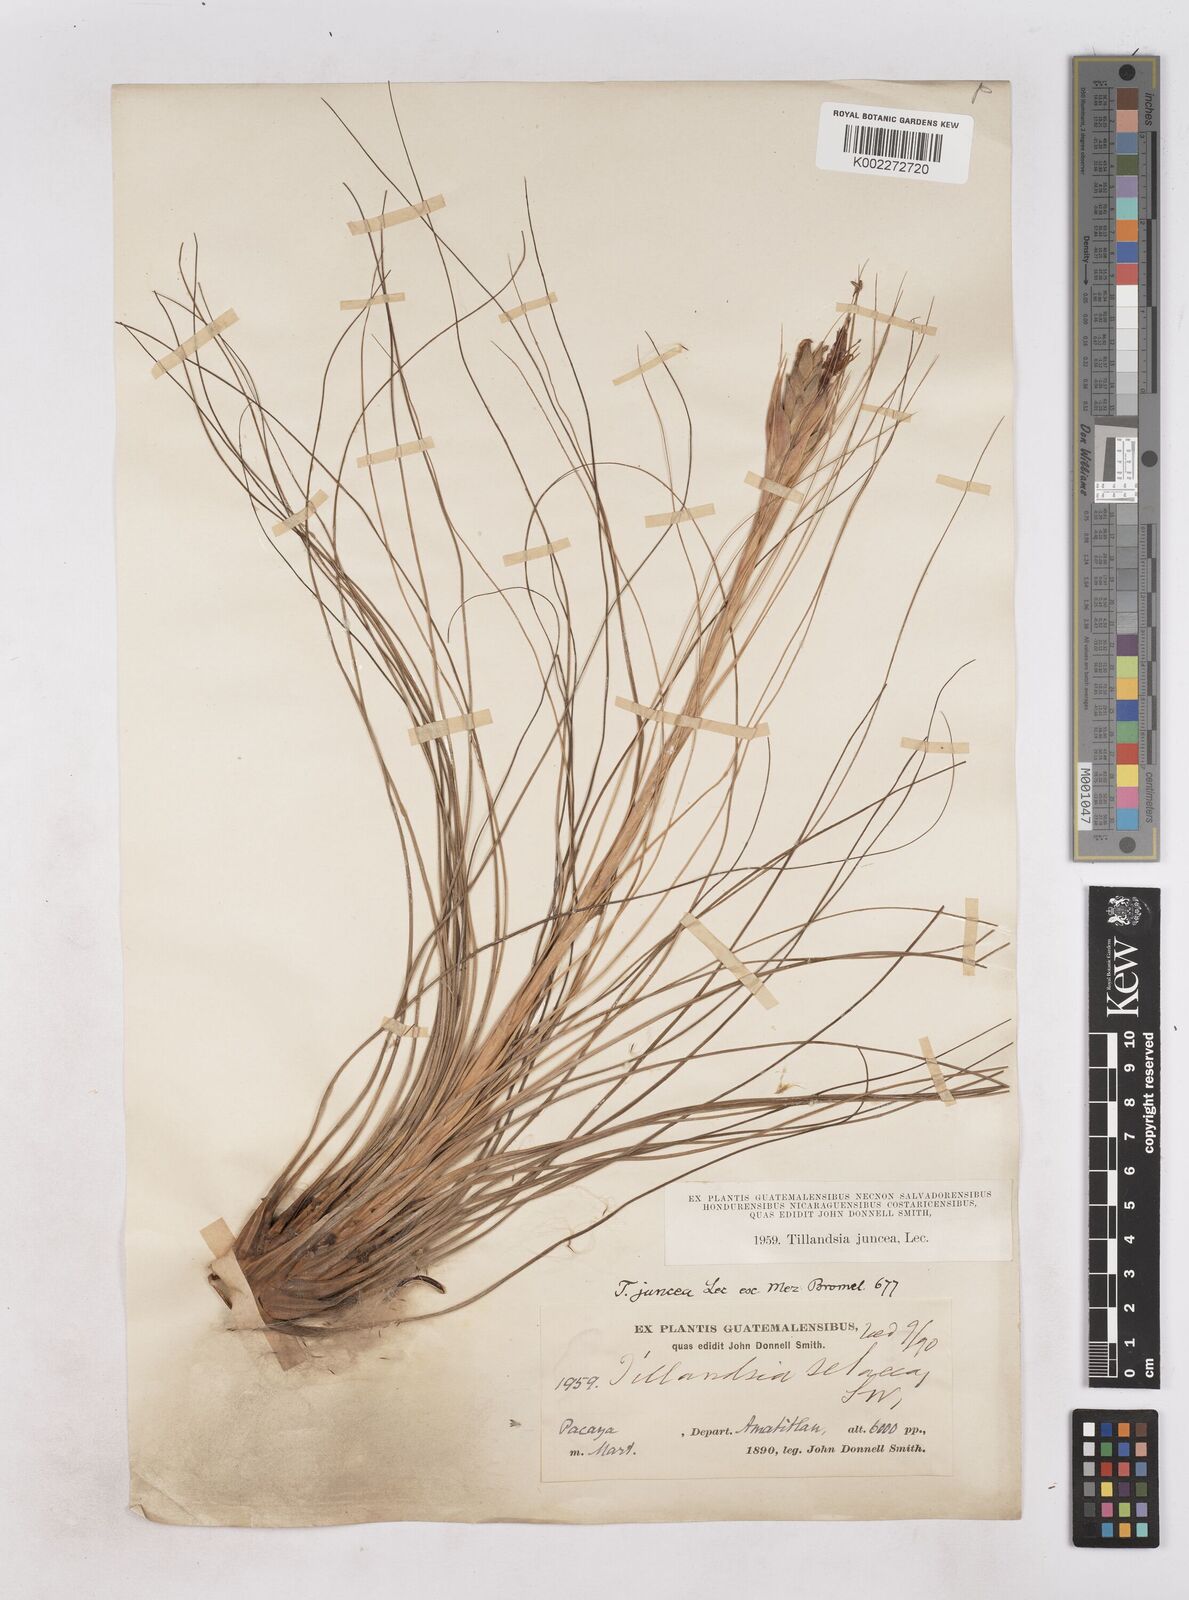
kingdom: Plantae
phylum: Tracheophyta
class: Liliopsida
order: Poales
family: Bromeliaceae
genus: Tillandsia
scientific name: Tillandsia
